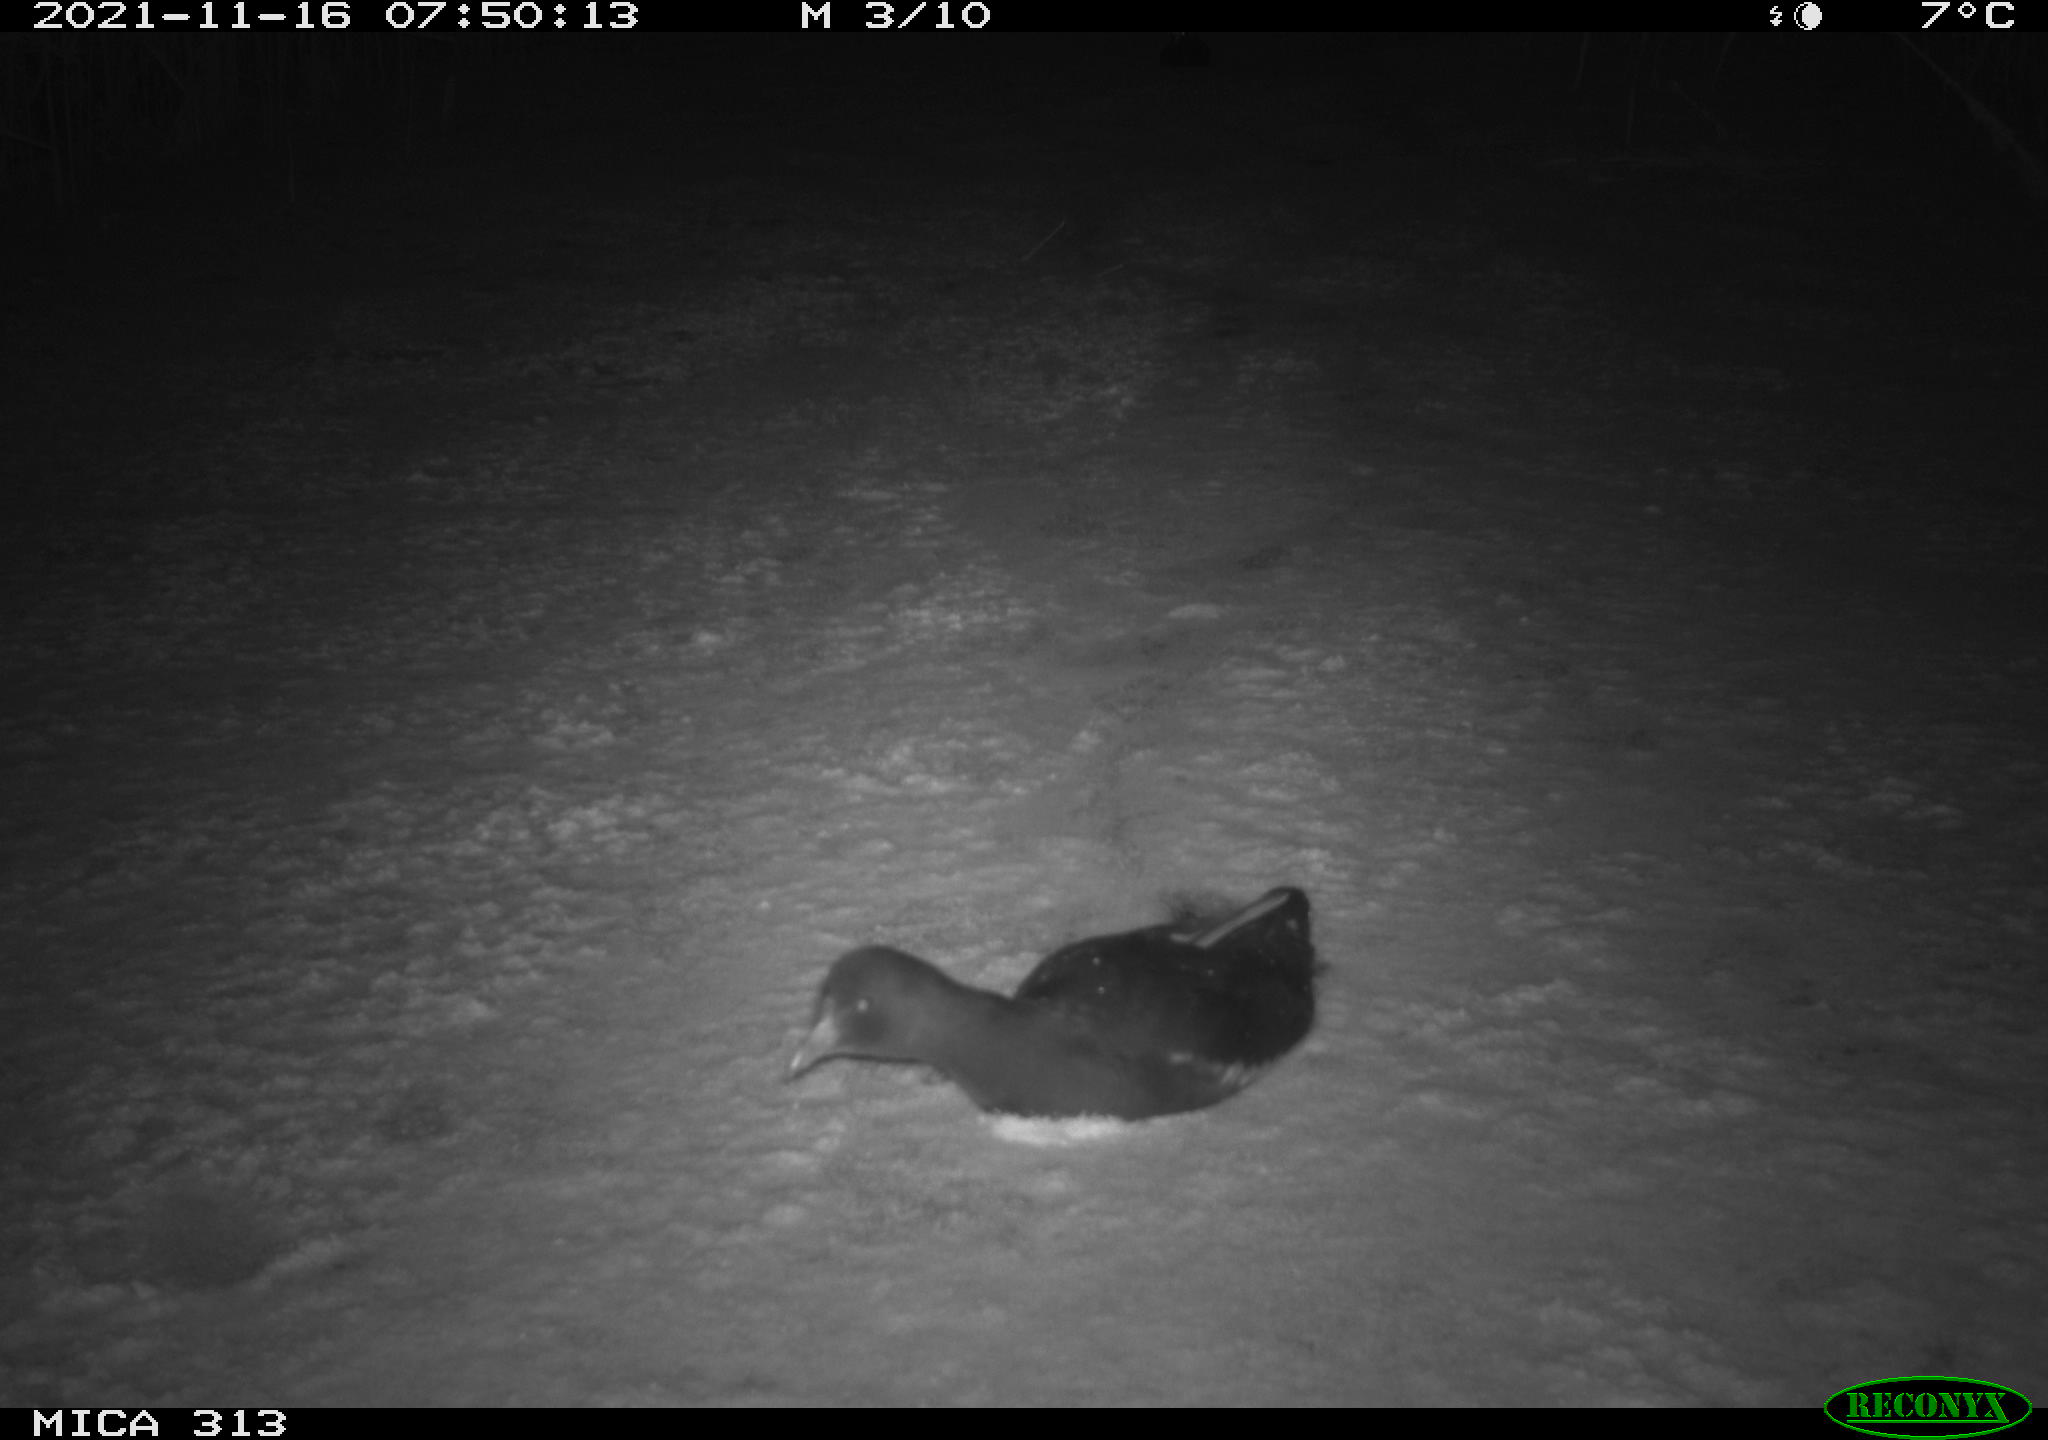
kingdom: Animalia
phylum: Chordata
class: Aves
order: Gruiformes
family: Rallidae
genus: Gallinula
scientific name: Gallinula chloropus
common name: Common moorhen
